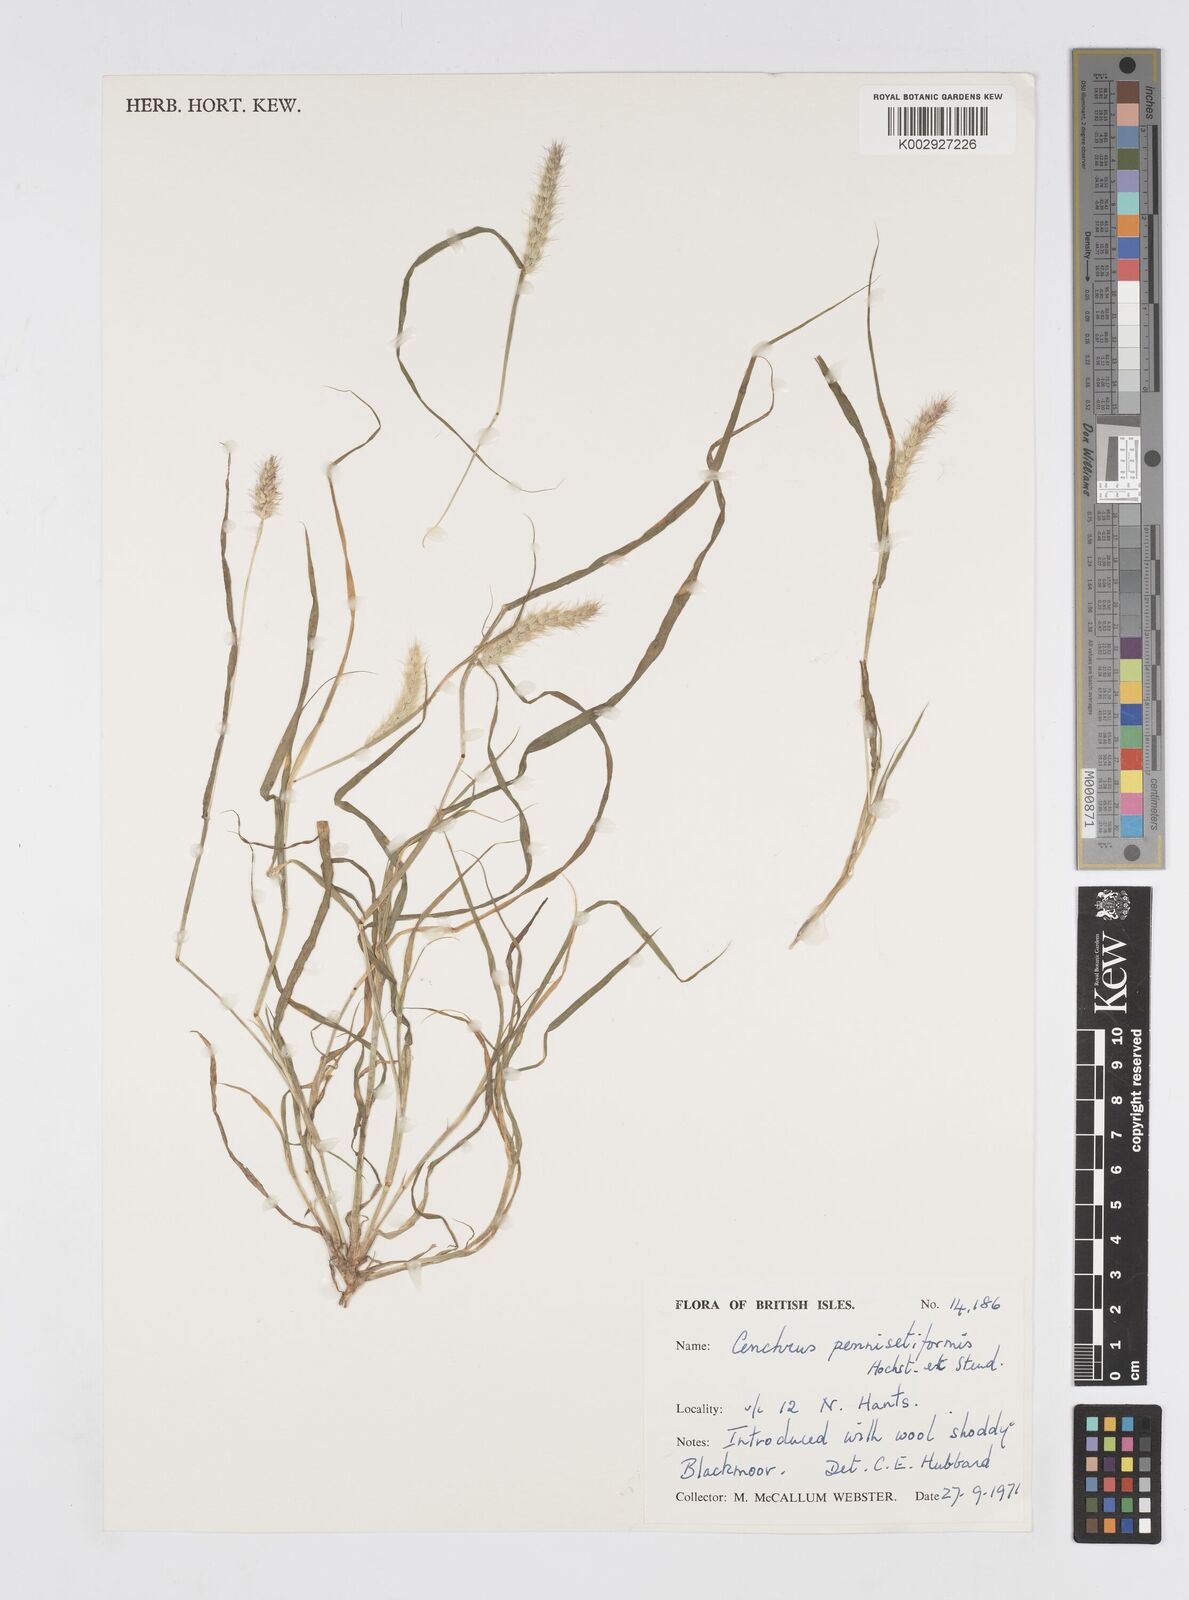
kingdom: Plantae
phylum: Tracheophyta
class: Liliopsida
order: Poales
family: Poaceae
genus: Cenchrus
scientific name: Cenchrus ciliaris
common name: Buffelgrass
